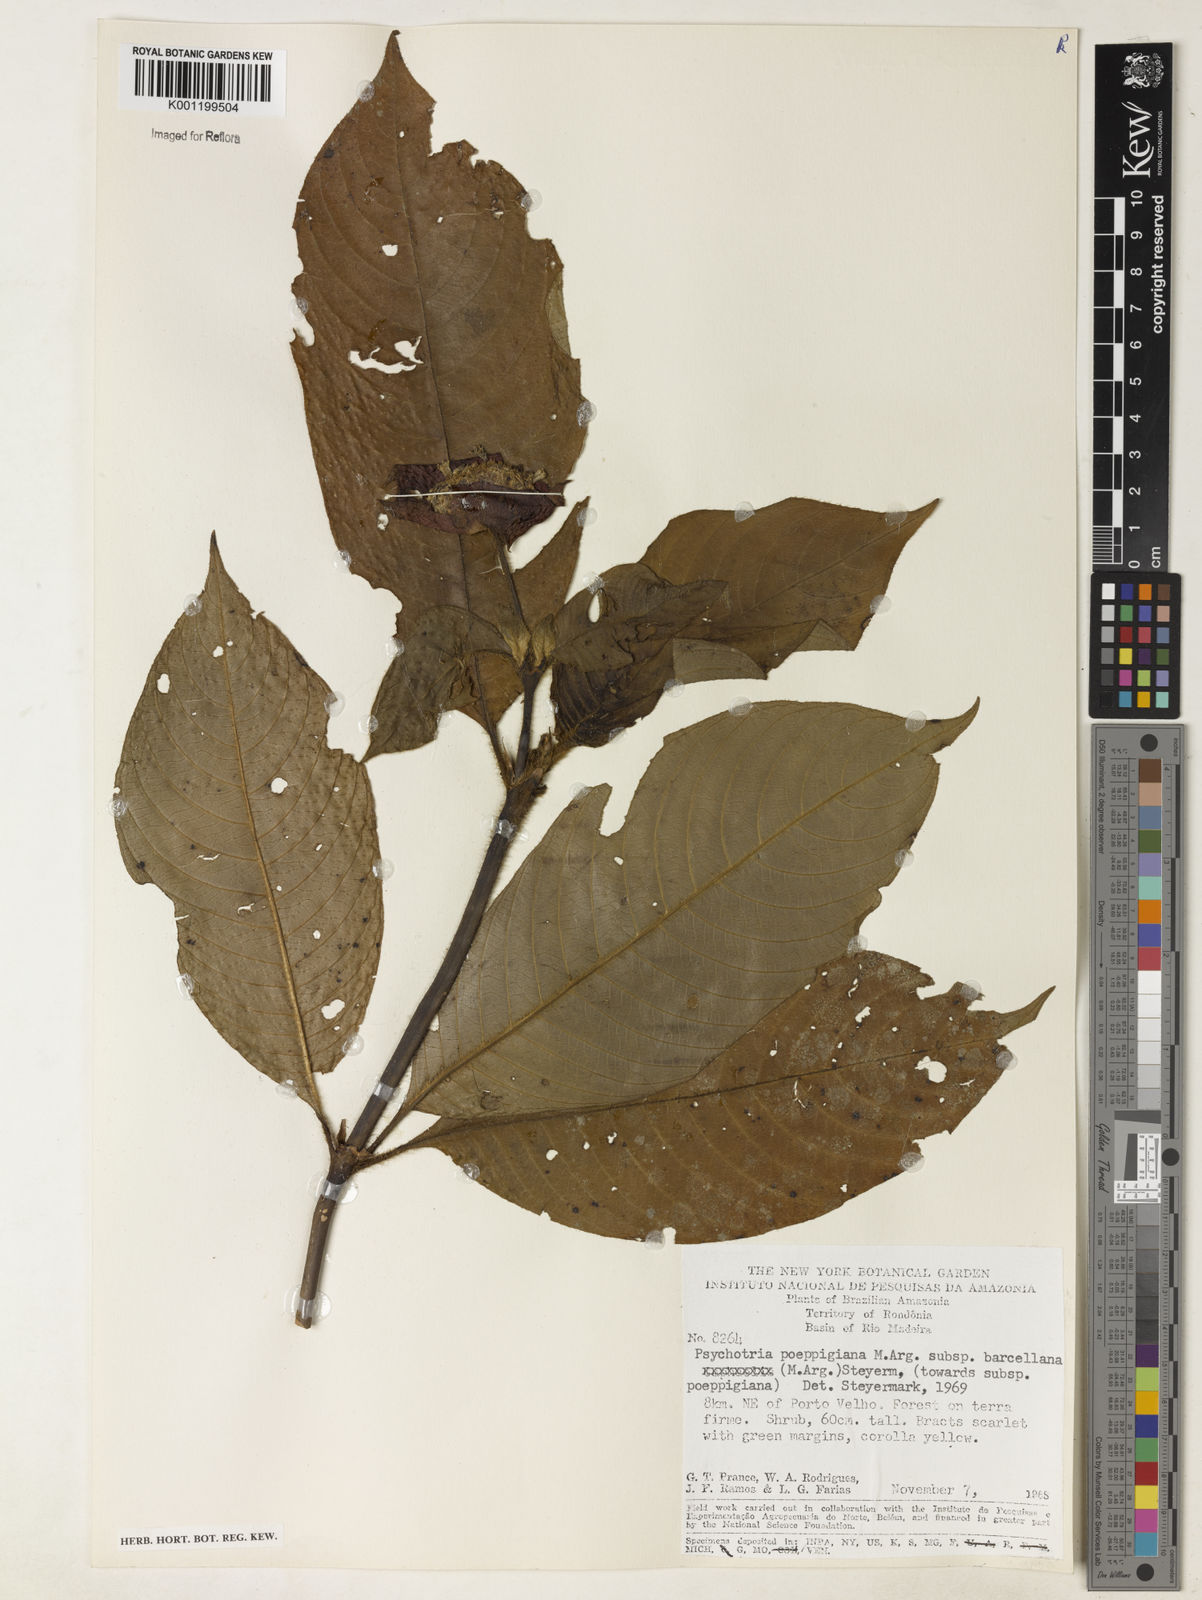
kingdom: Plantae
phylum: Tracheophyta
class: Magnoliopsida
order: Gentianales
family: Rubiaceae
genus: Psychotria
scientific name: Psychotria
